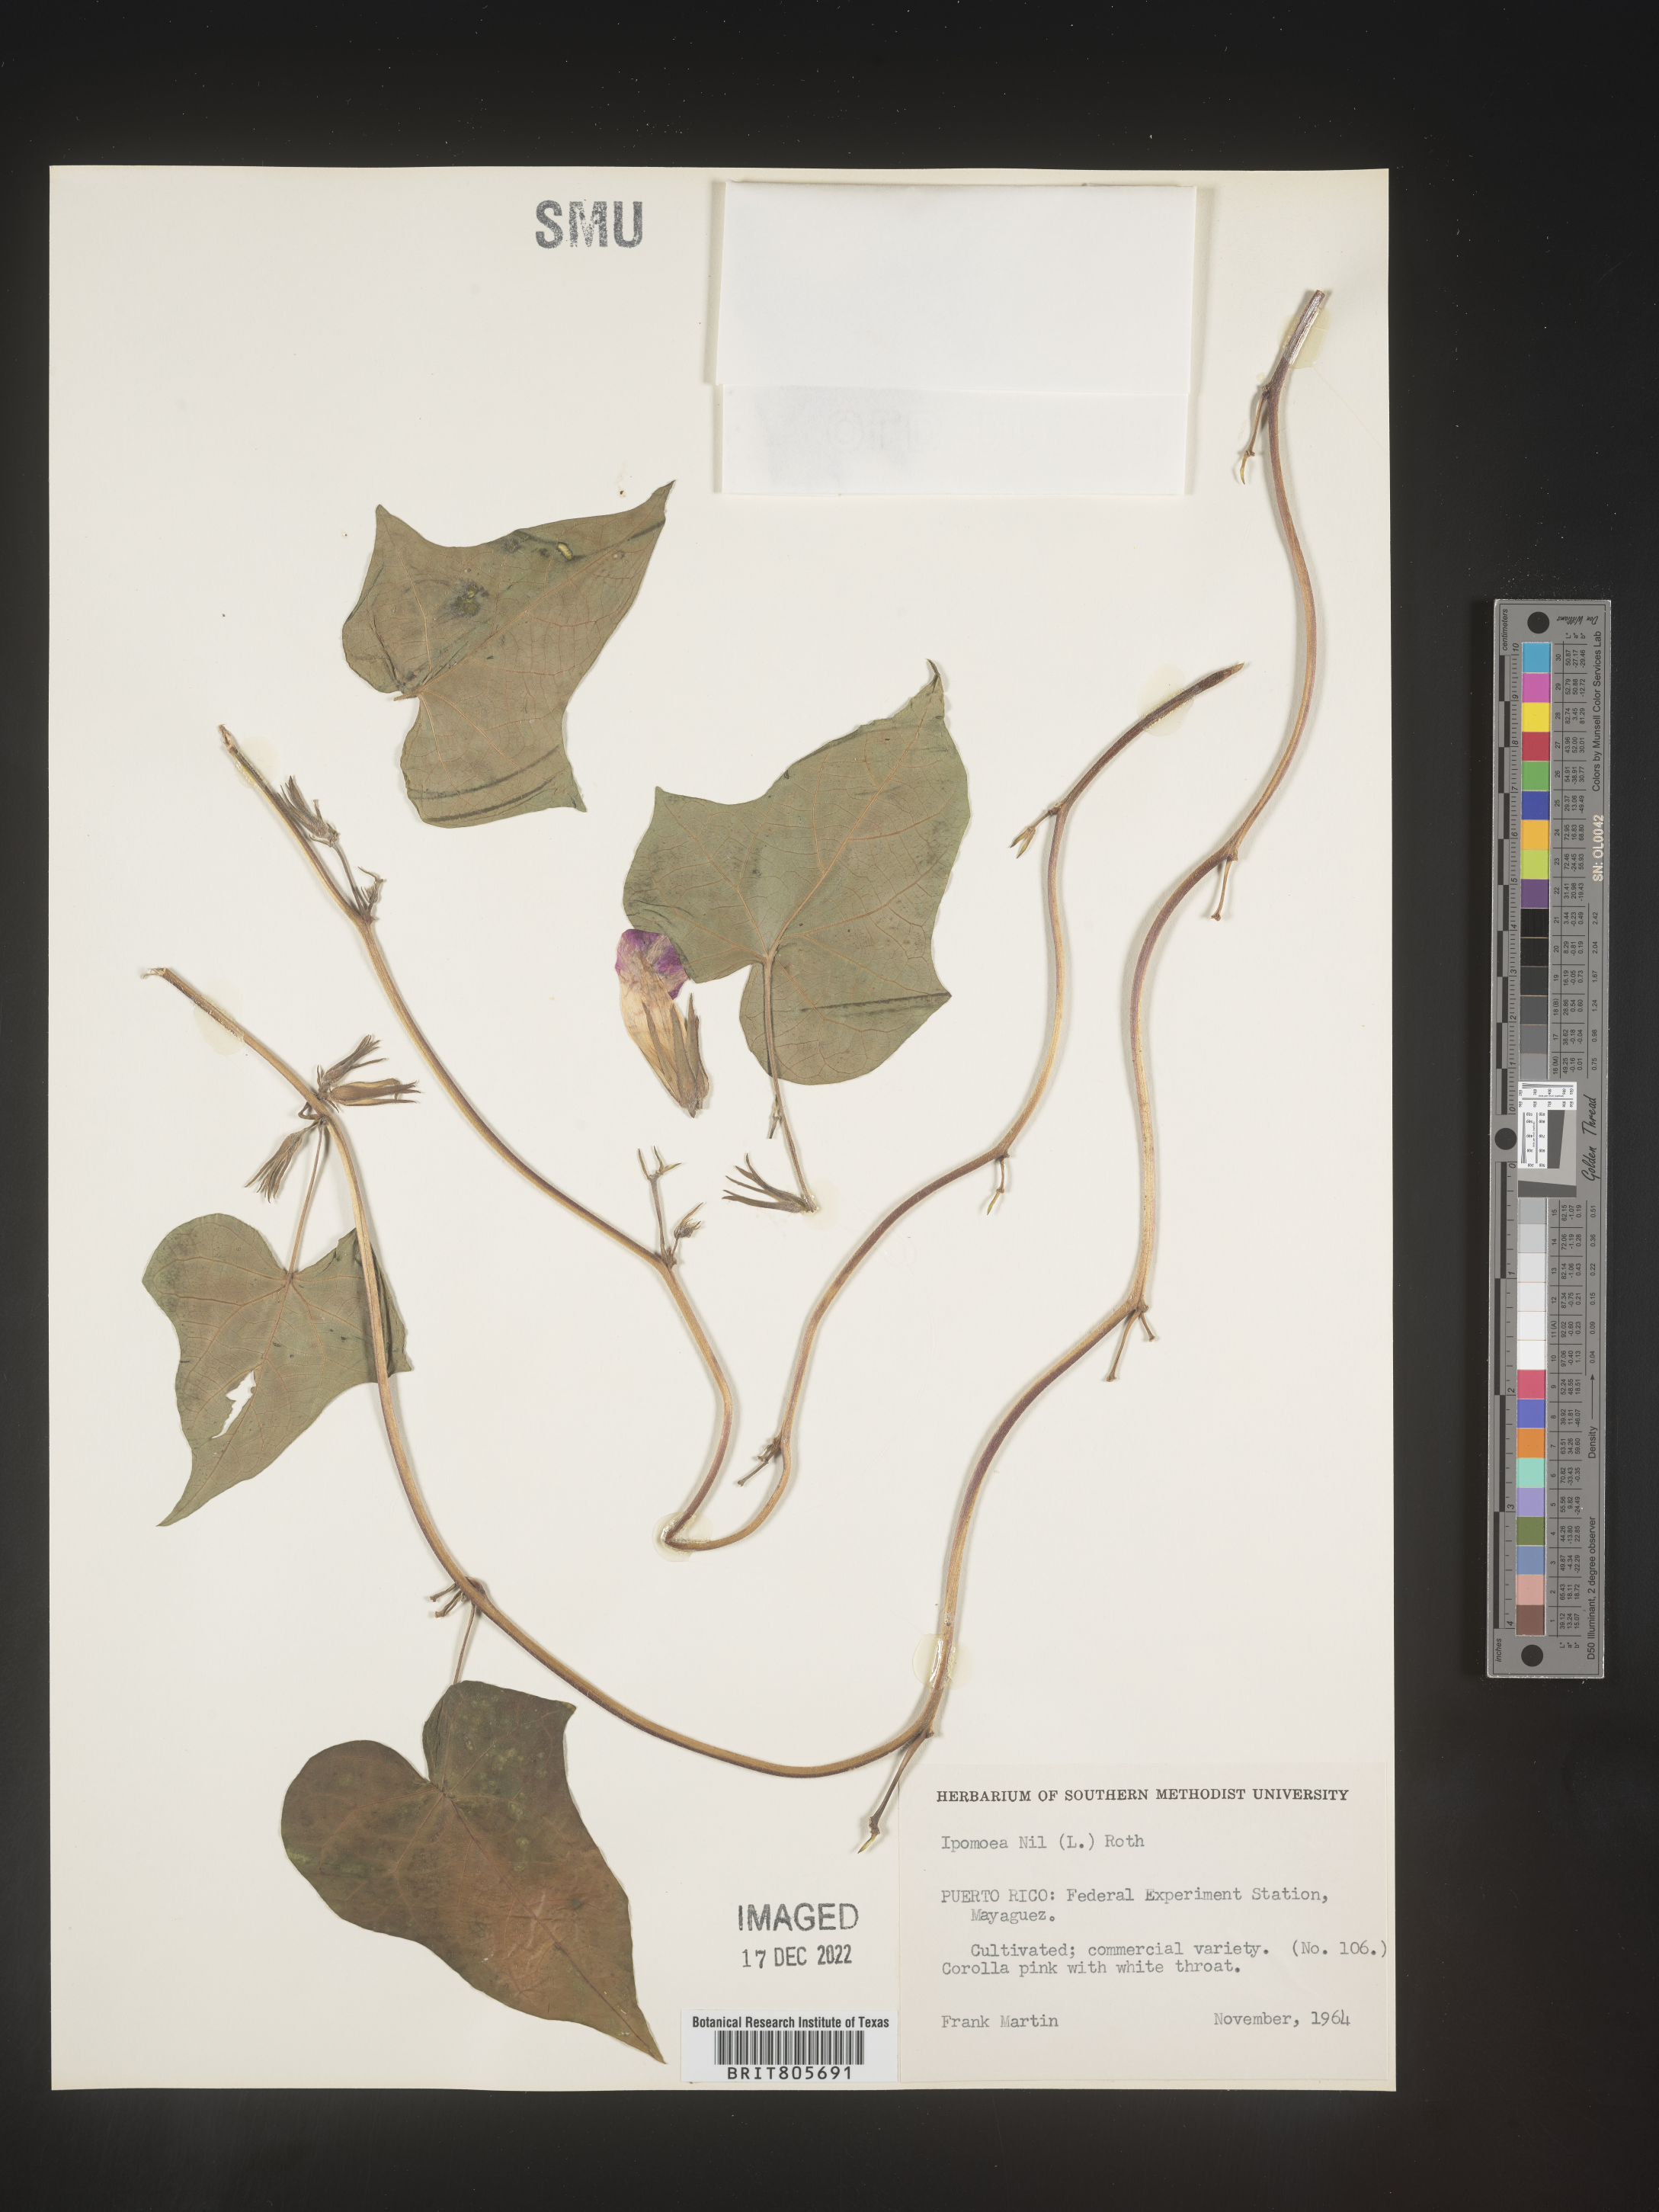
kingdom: Plantae
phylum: Tracheophyta
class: Magnoliopsida
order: Solanales
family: Convolvulaceae
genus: Ipomoea
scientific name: Ipomoea
